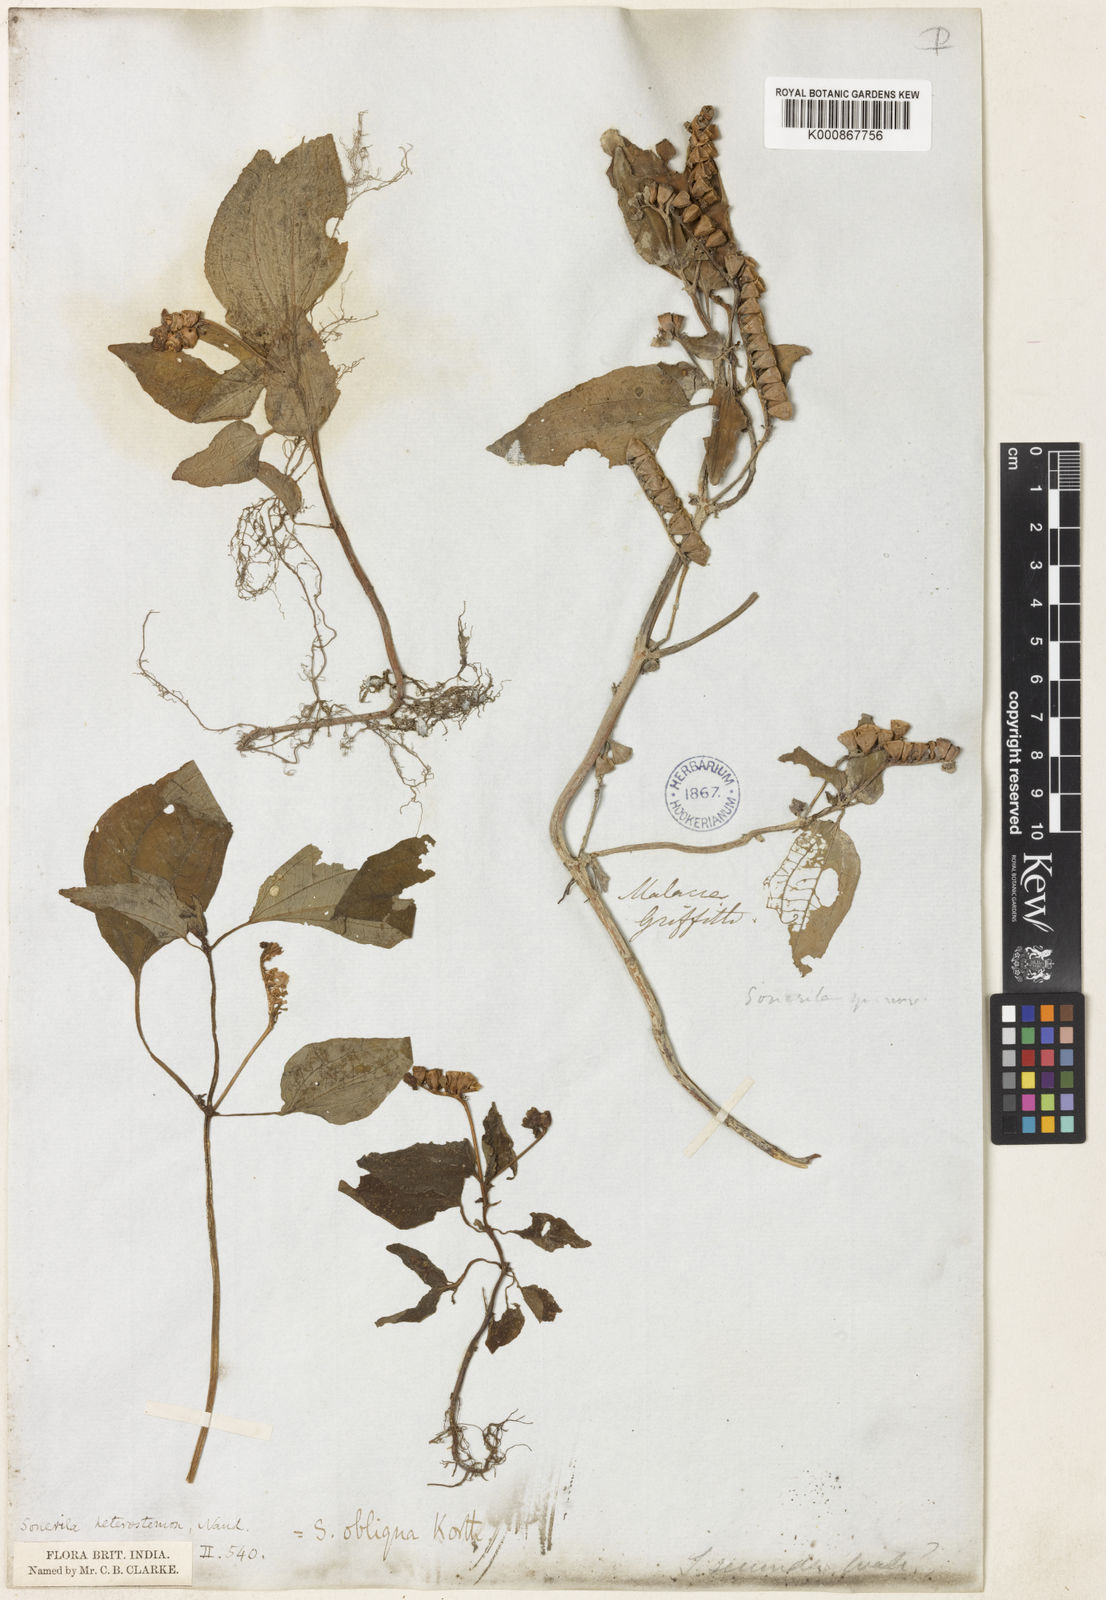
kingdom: Plantae
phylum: Tracheophyta
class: Magnoliopsida
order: Myrtales
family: Melastomataceae
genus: Sonerila
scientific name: Sonerila obliqua
